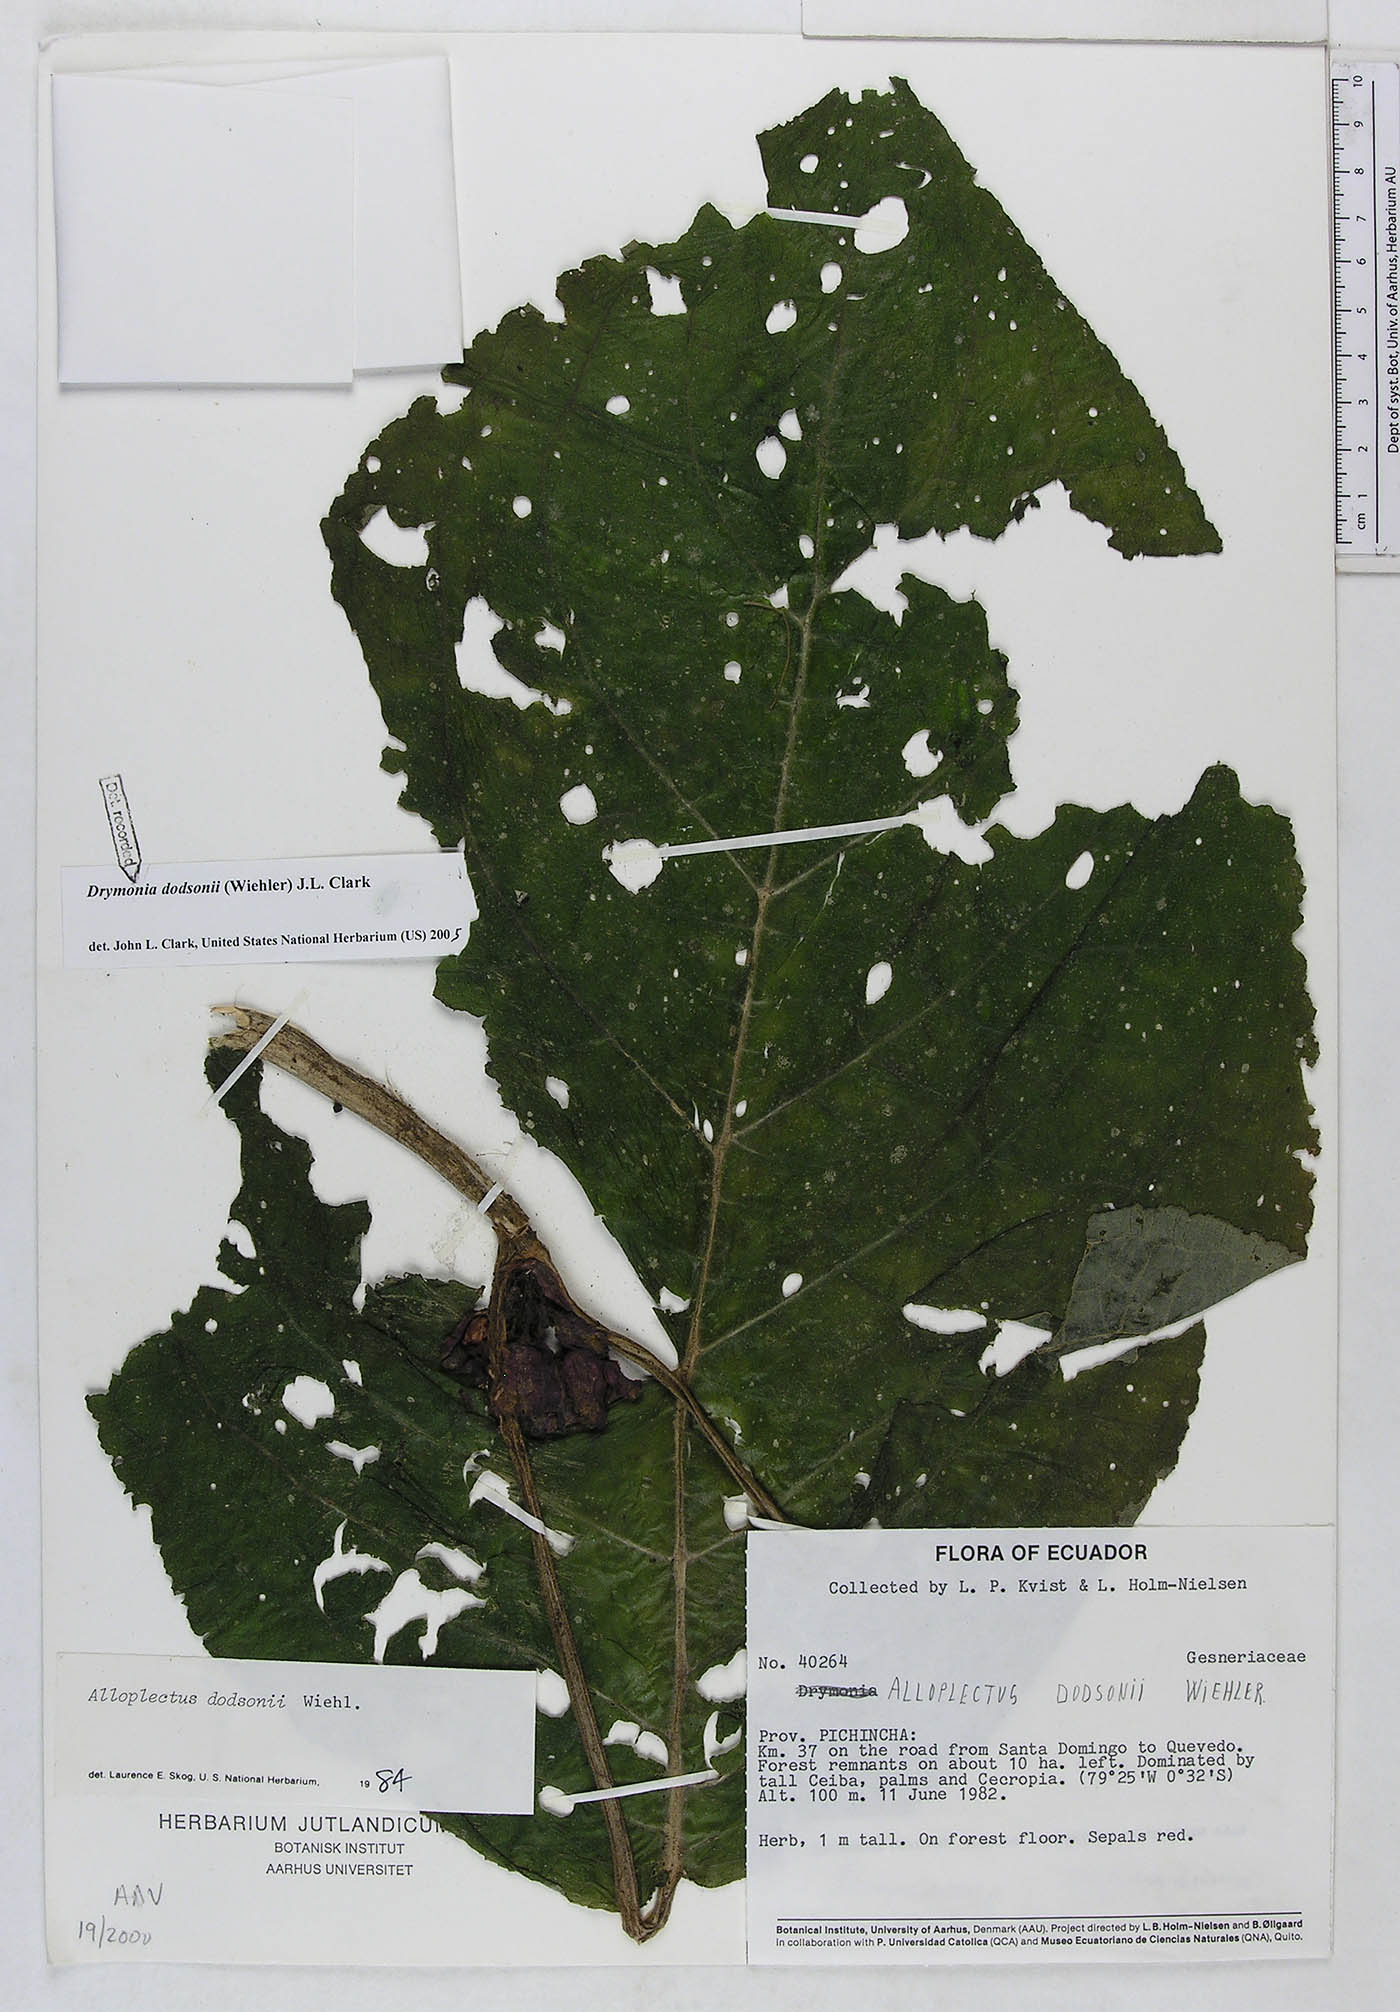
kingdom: Plantae
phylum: Tracheophyta
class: Magnoliopsida
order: Lamiales
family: Gesneriaceae
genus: Drymonia
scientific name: Drymonia dodsonii
